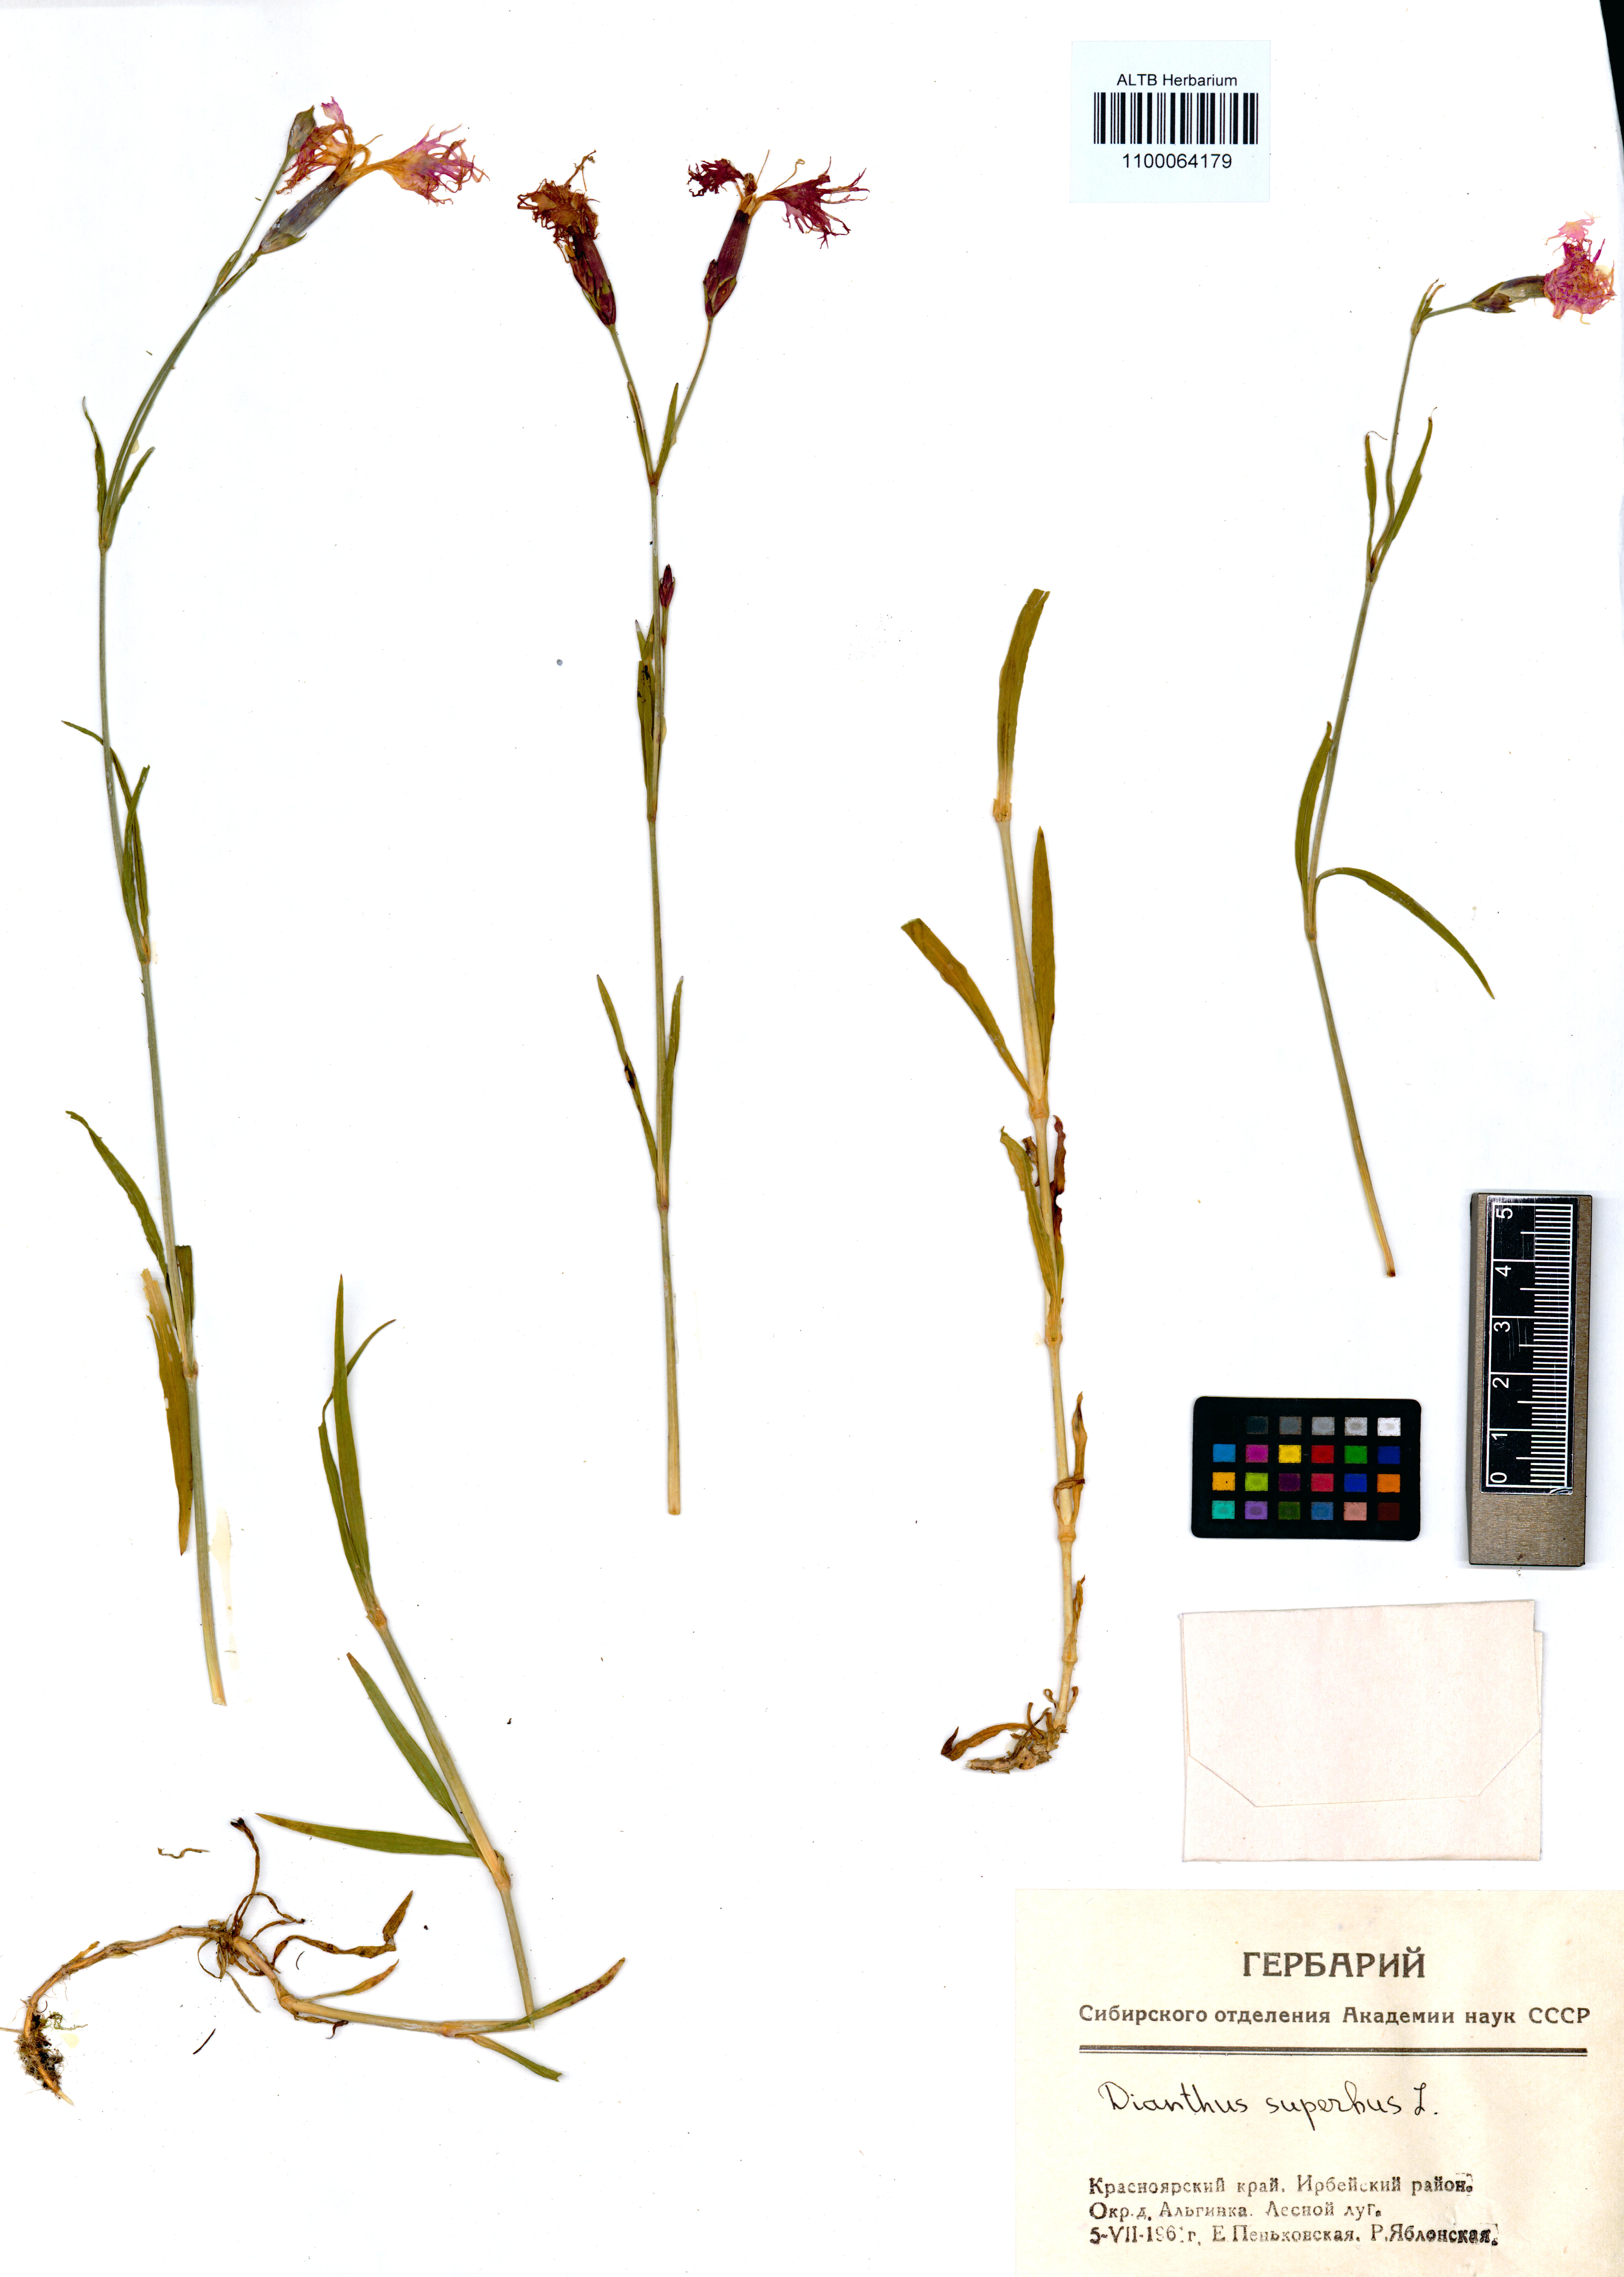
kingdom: Plantae
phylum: Tracheophyta
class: Magnoliopsida
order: Caryophyllales
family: Caryophyllaceae
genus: Dianthus
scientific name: Dianthus superbus
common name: Fringed pink
